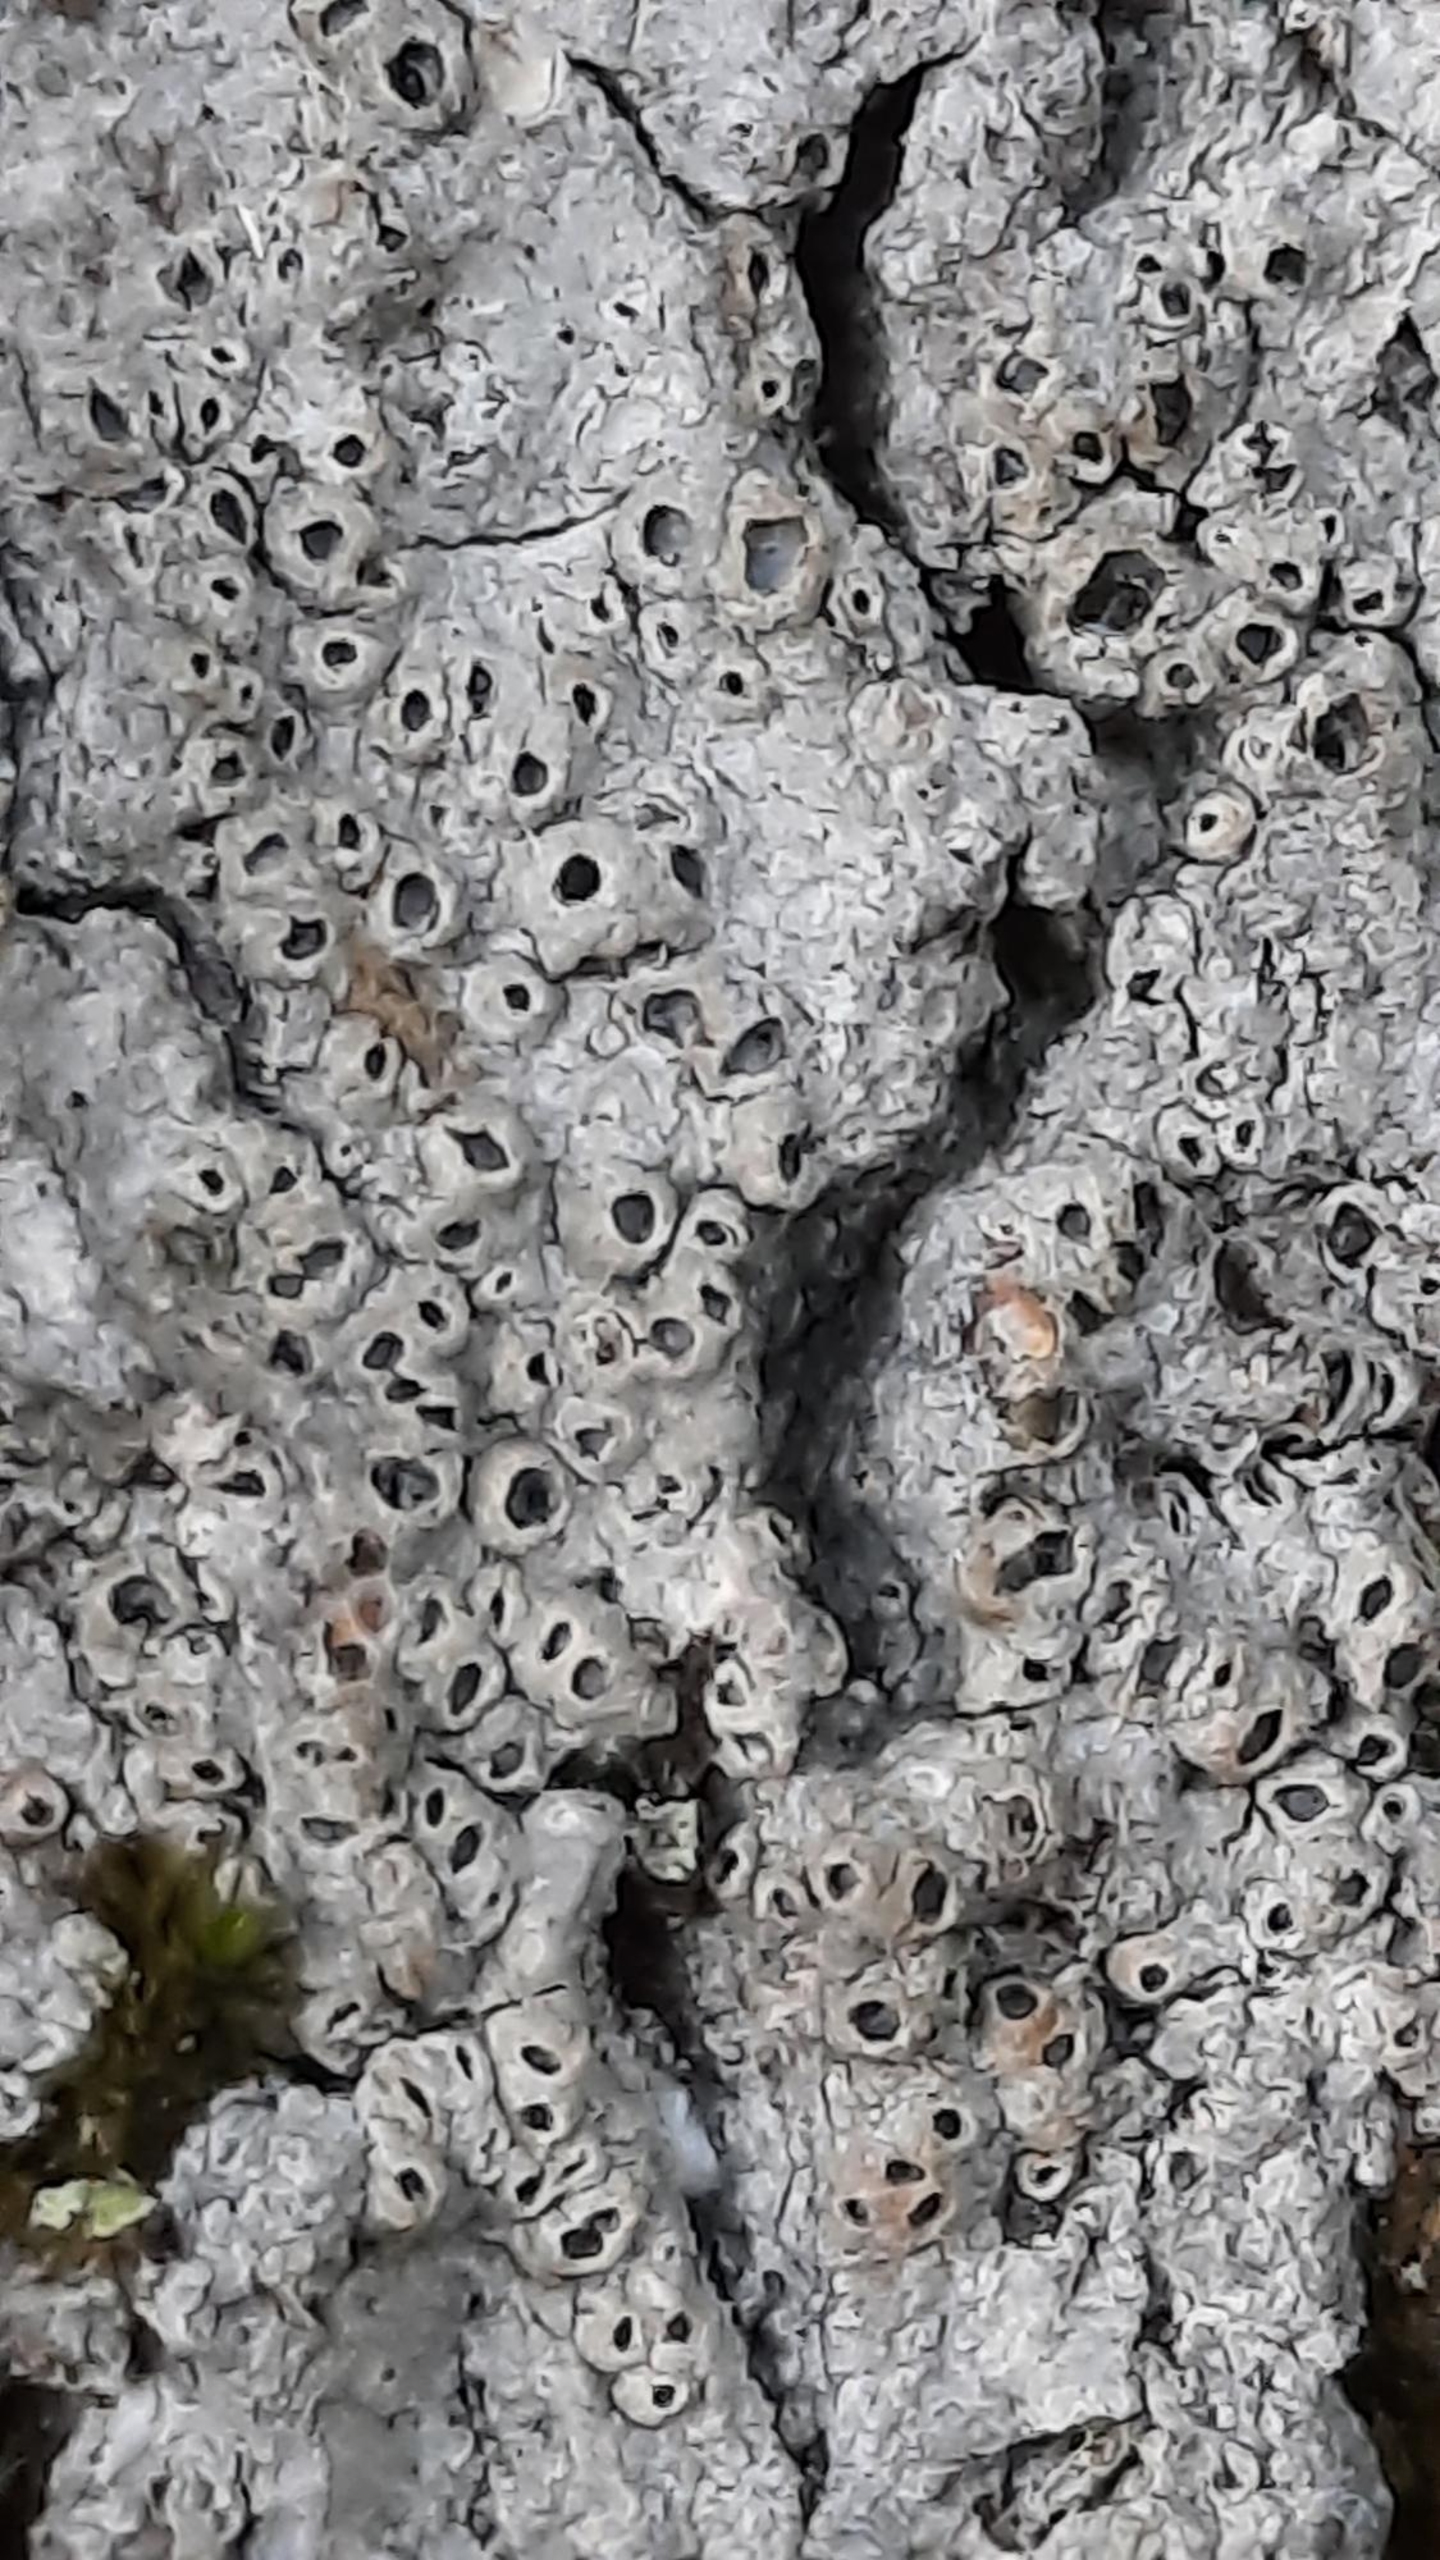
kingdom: Fungi
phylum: Ascomycota
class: Lecanoromycetes
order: Ostropales
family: Graphidaceae
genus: Thelotrema
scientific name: Thelotrema lepadinum
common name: Almindelig slørkantlav
